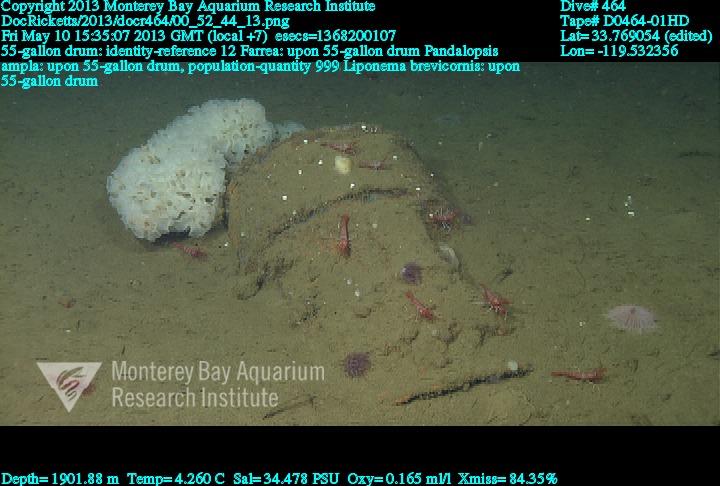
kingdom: Animalia
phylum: Porifera
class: Hexactinellida
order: Sceptrulophora
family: Farreidae
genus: Farrea
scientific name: Farrea
